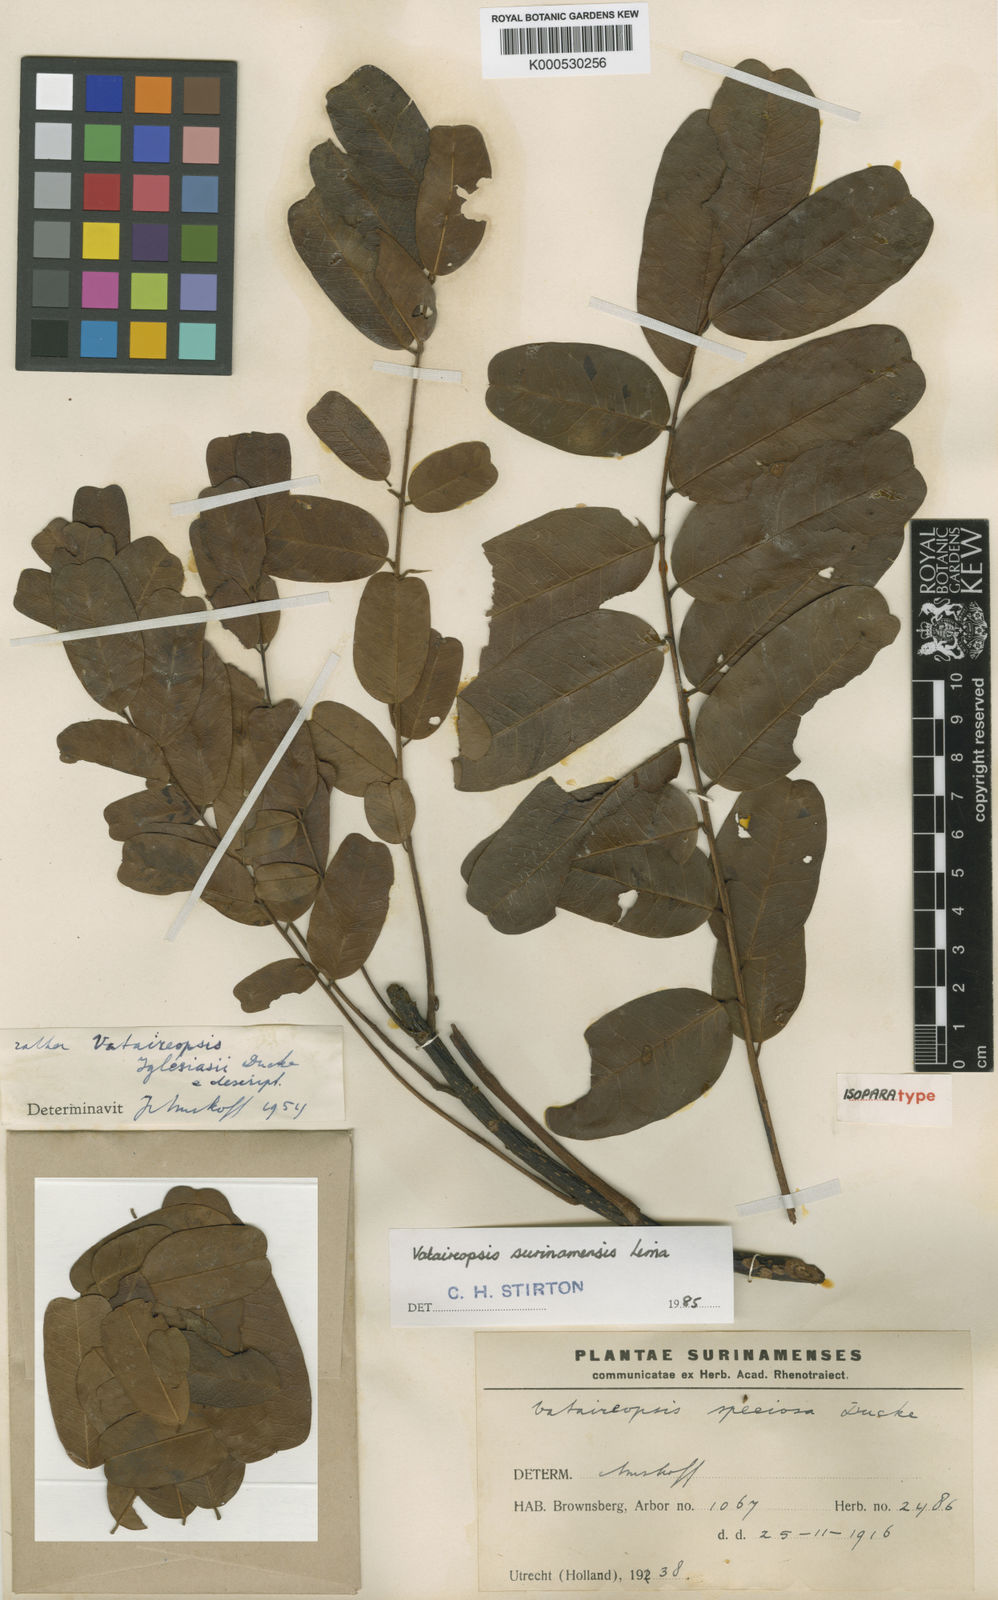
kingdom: Plantae
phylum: Tracheophyta
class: Magnoliopsida
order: Fabales
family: Fabaceae
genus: Vataireopsis
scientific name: Vataireopsis surinamensis
